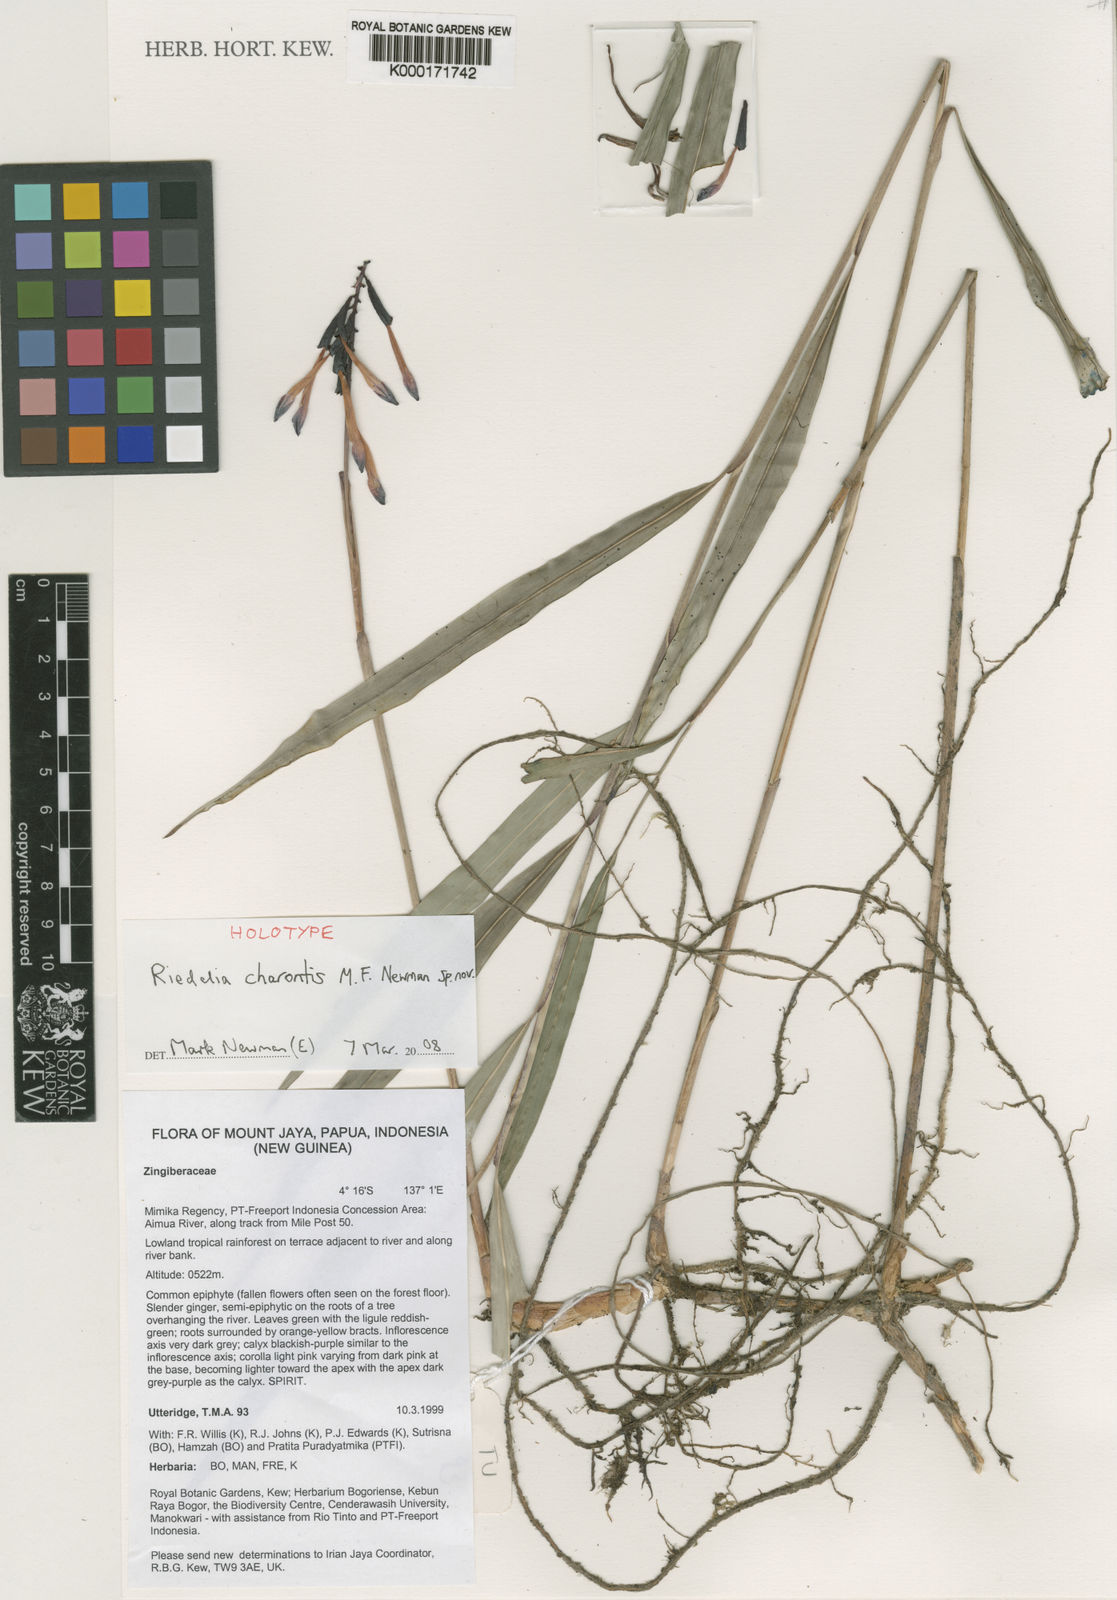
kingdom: Plantae
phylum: Tracheophyta
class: Liliopsida
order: Zingiberales
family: Zingiberaceae
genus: Riedelia
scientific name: Riedelia charontis
